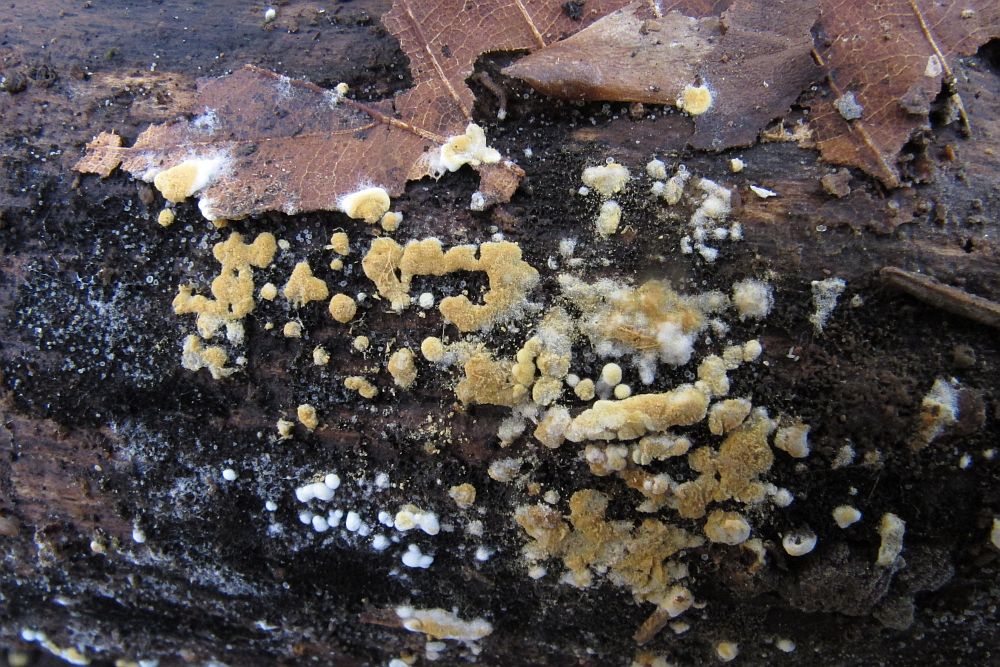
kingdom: Fungi
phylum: Basidiomycota
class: Agaricomycetes
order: Cantharellales
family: Botryobasidiaceae
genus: Botryobasidium
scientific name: Botryobasidium aureum
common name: gylden spindhinde
